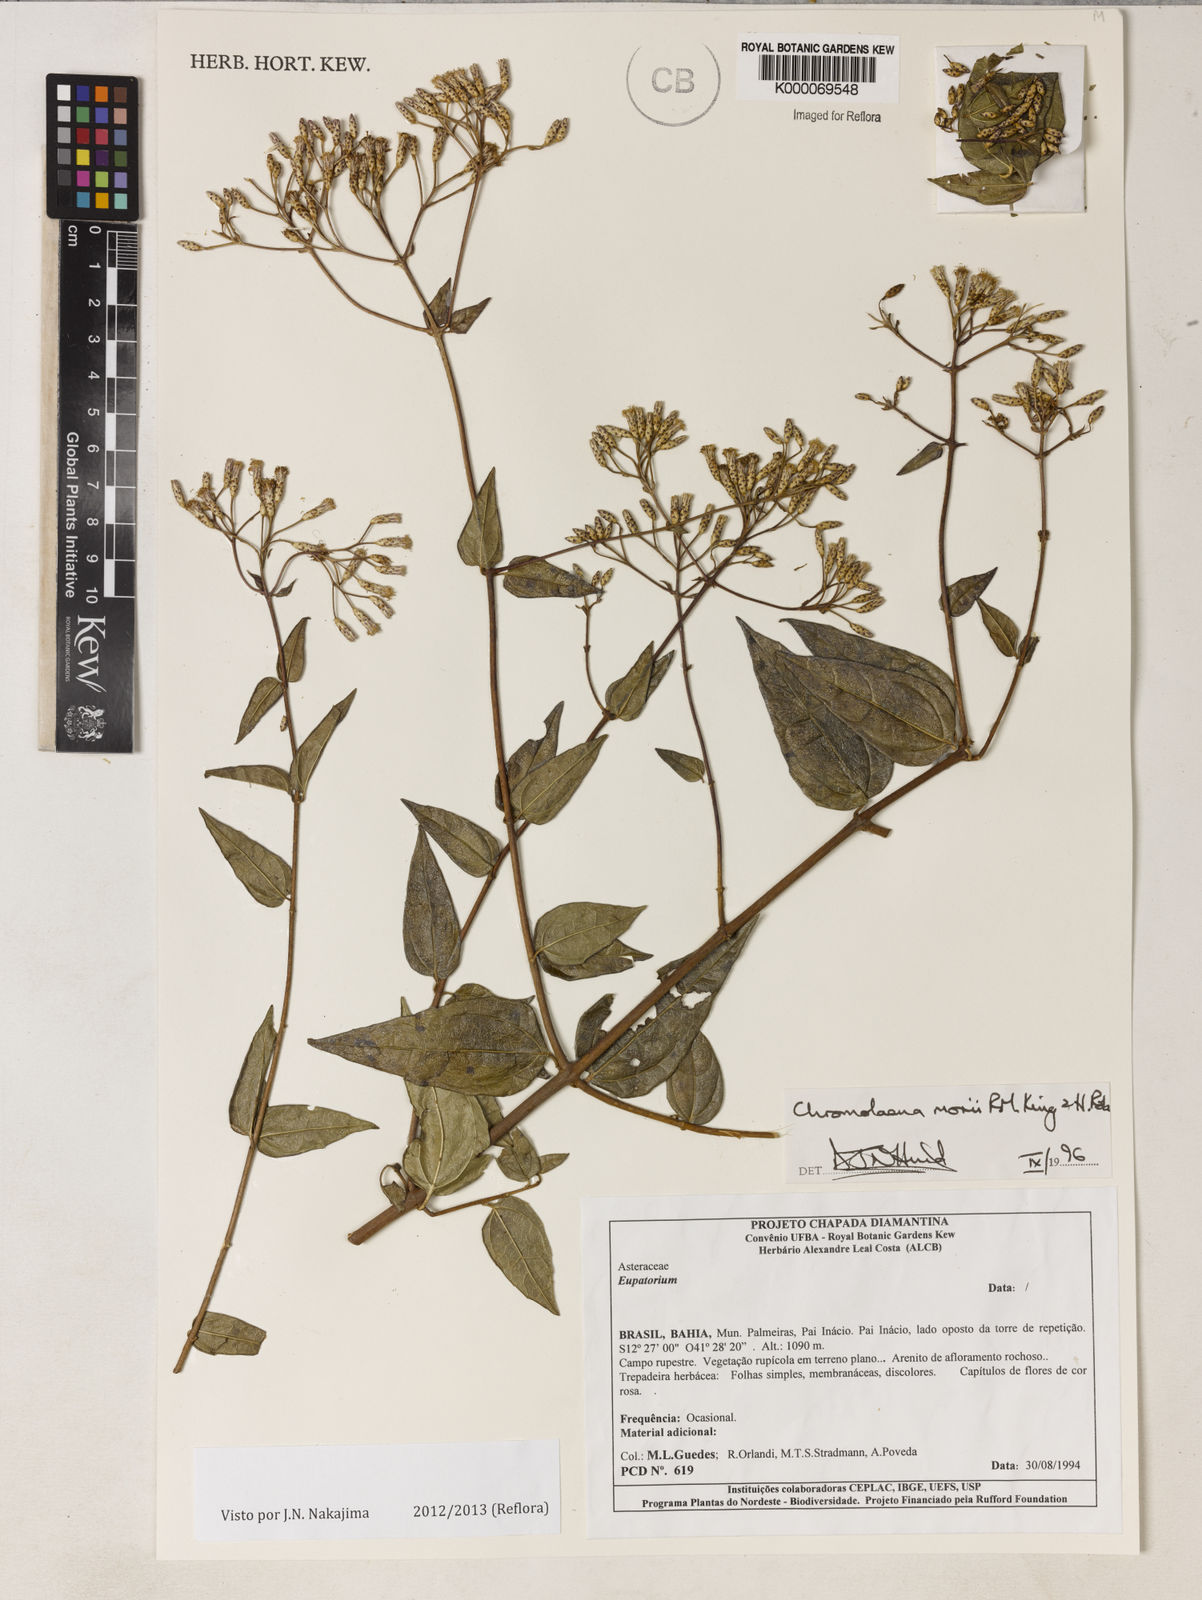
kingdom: Plantae
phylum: Tracheophyta
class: Magnoliopsida
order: Asterales
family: Asteraceae
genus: Chromolaena
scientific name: Chromolaena morii
